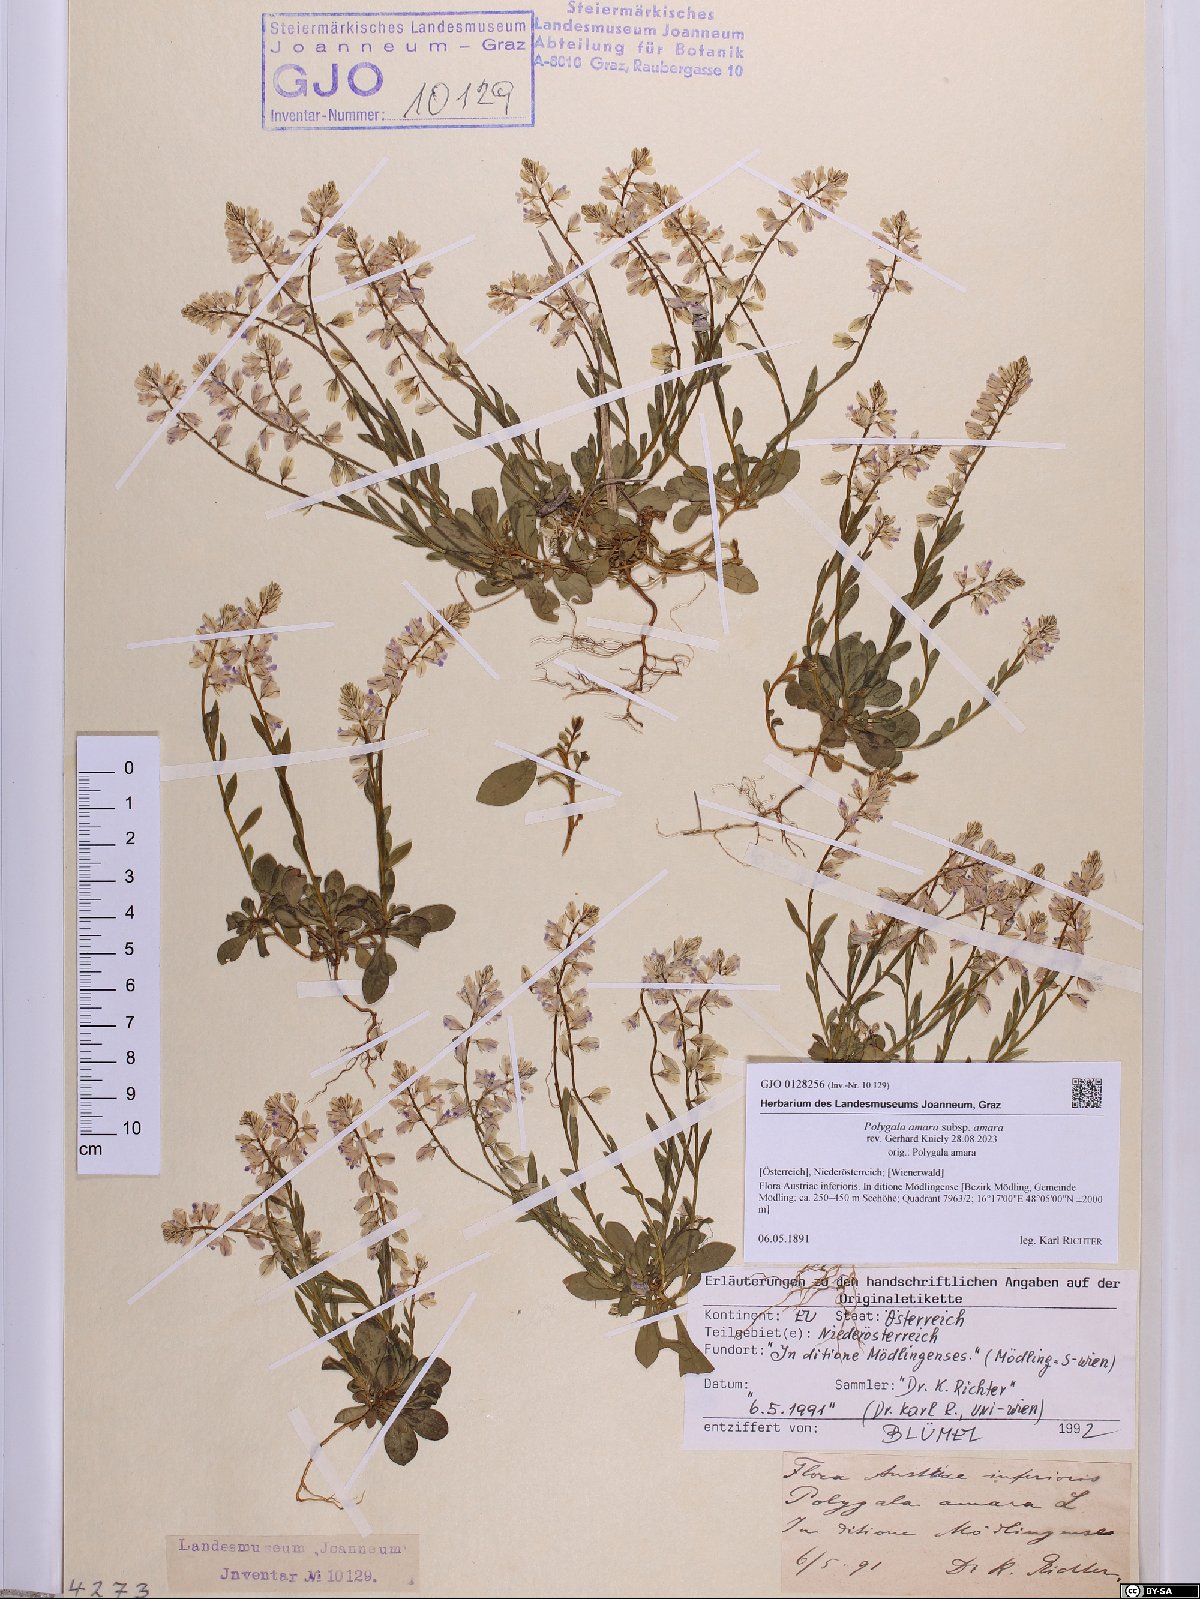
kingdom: Plantae
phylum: Tracheophyta
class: Magnoliopsida
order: Fabales
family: Polygalaceae
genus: Polygala
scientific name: Polygala amara
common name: Milkwort
